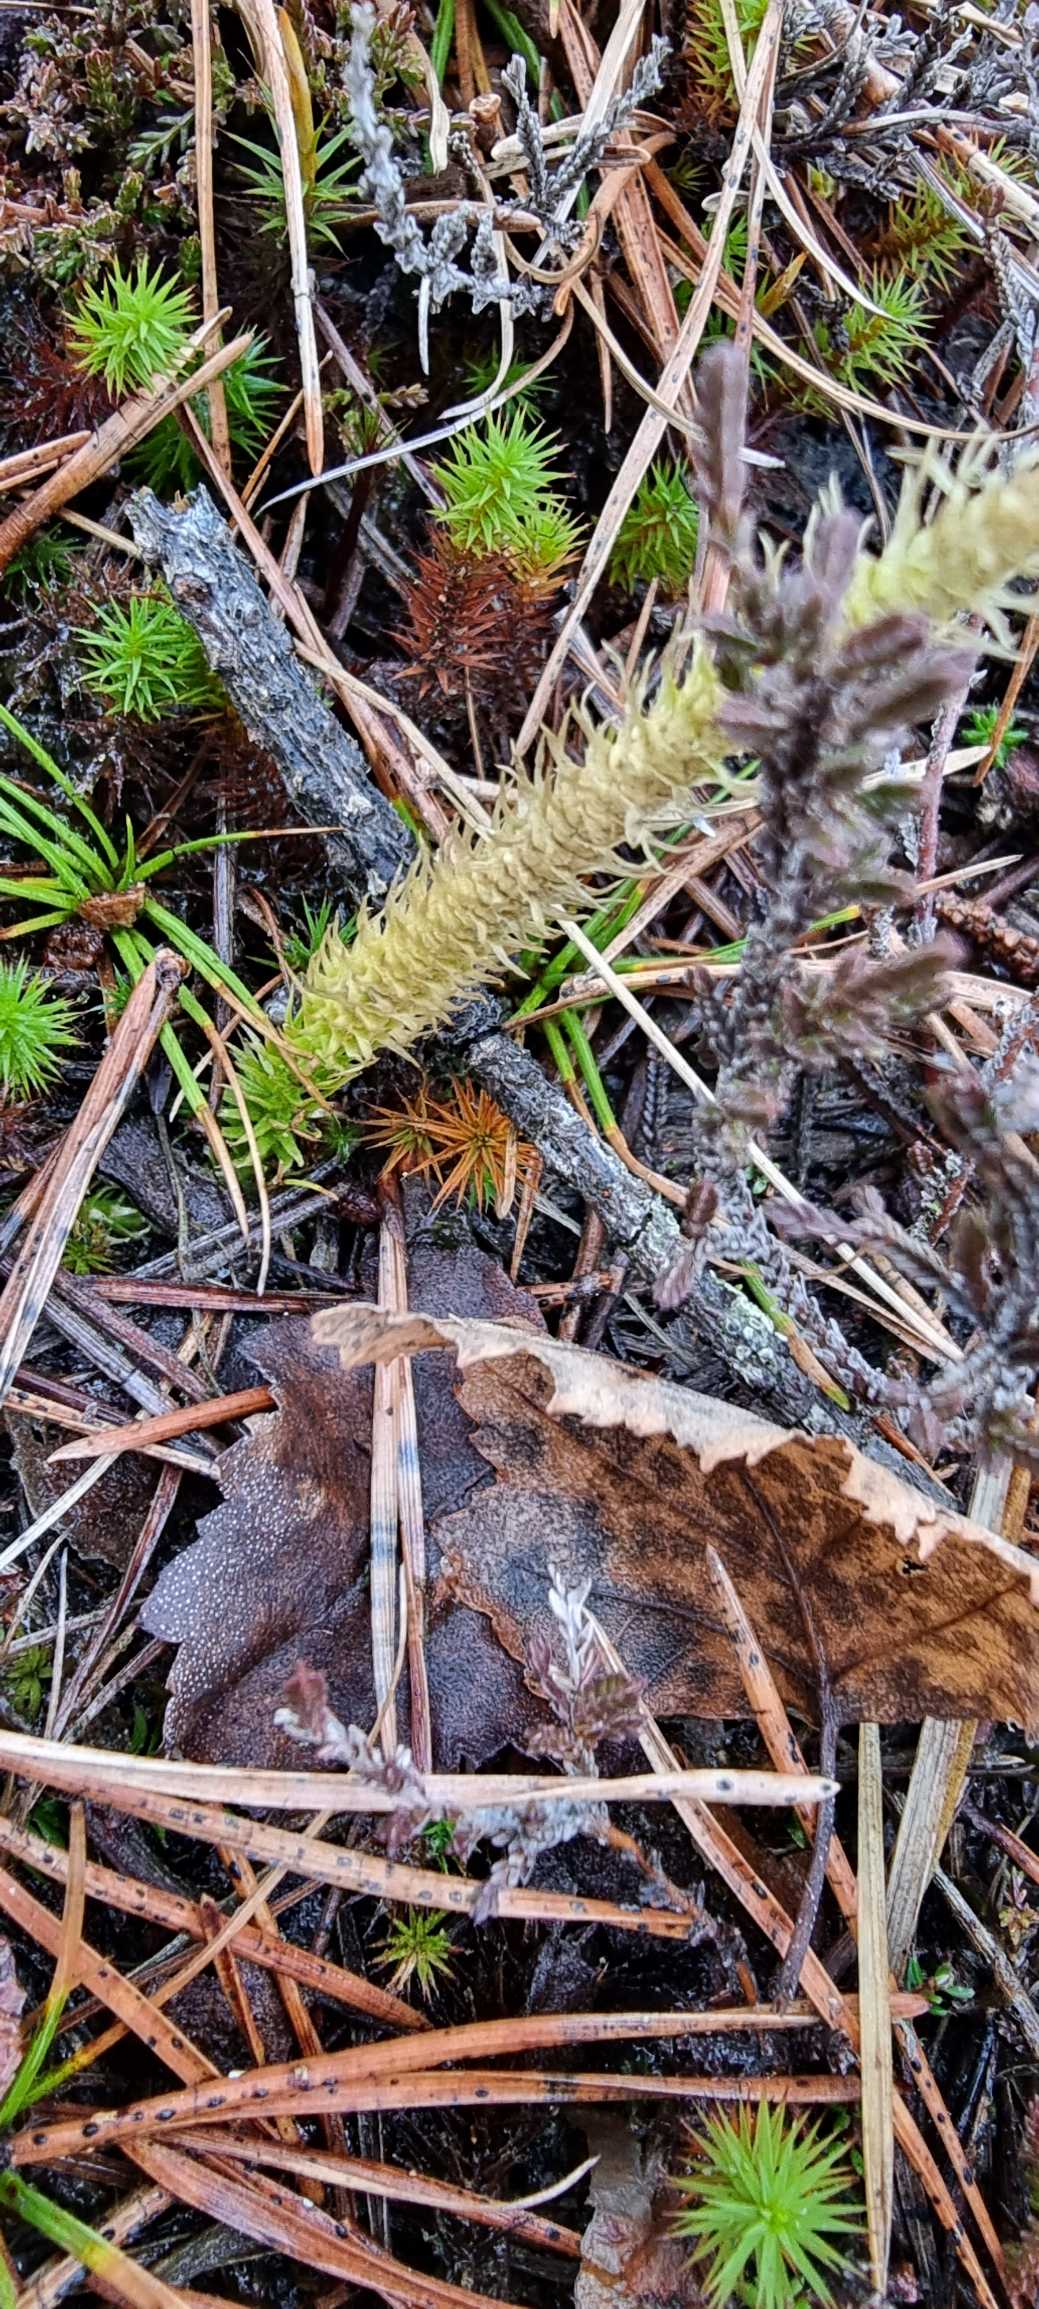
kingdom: Plantae
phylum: Tracheophyta
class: Lycopodiopsida
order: Lycopodiales
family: Lycopodiaceae
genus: Lycopodiella
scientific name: Lycopodiella inundata
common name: Liden ulvefod
